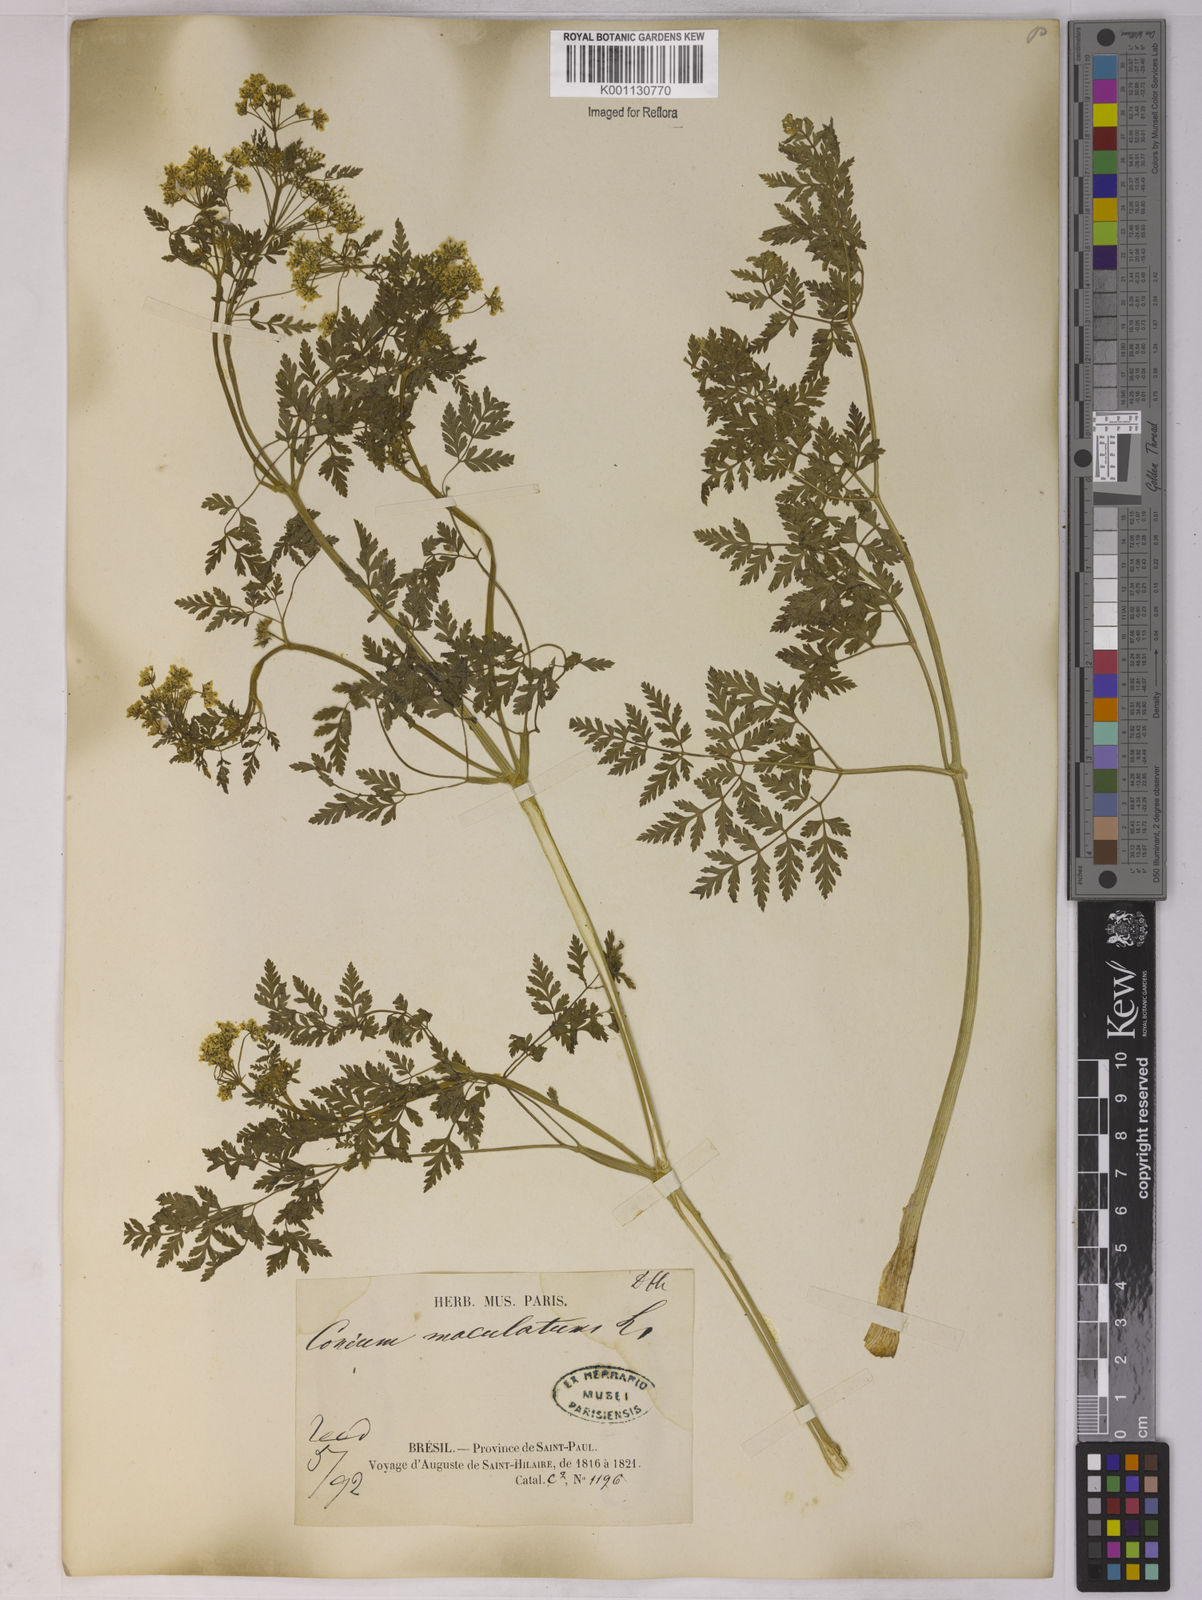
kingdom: Plantae
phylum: Tracheophyta
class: Magnoliopsida
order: Apiales
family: Apiaceae
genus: Conium
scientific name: Conium maculatum
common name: Hemlock
